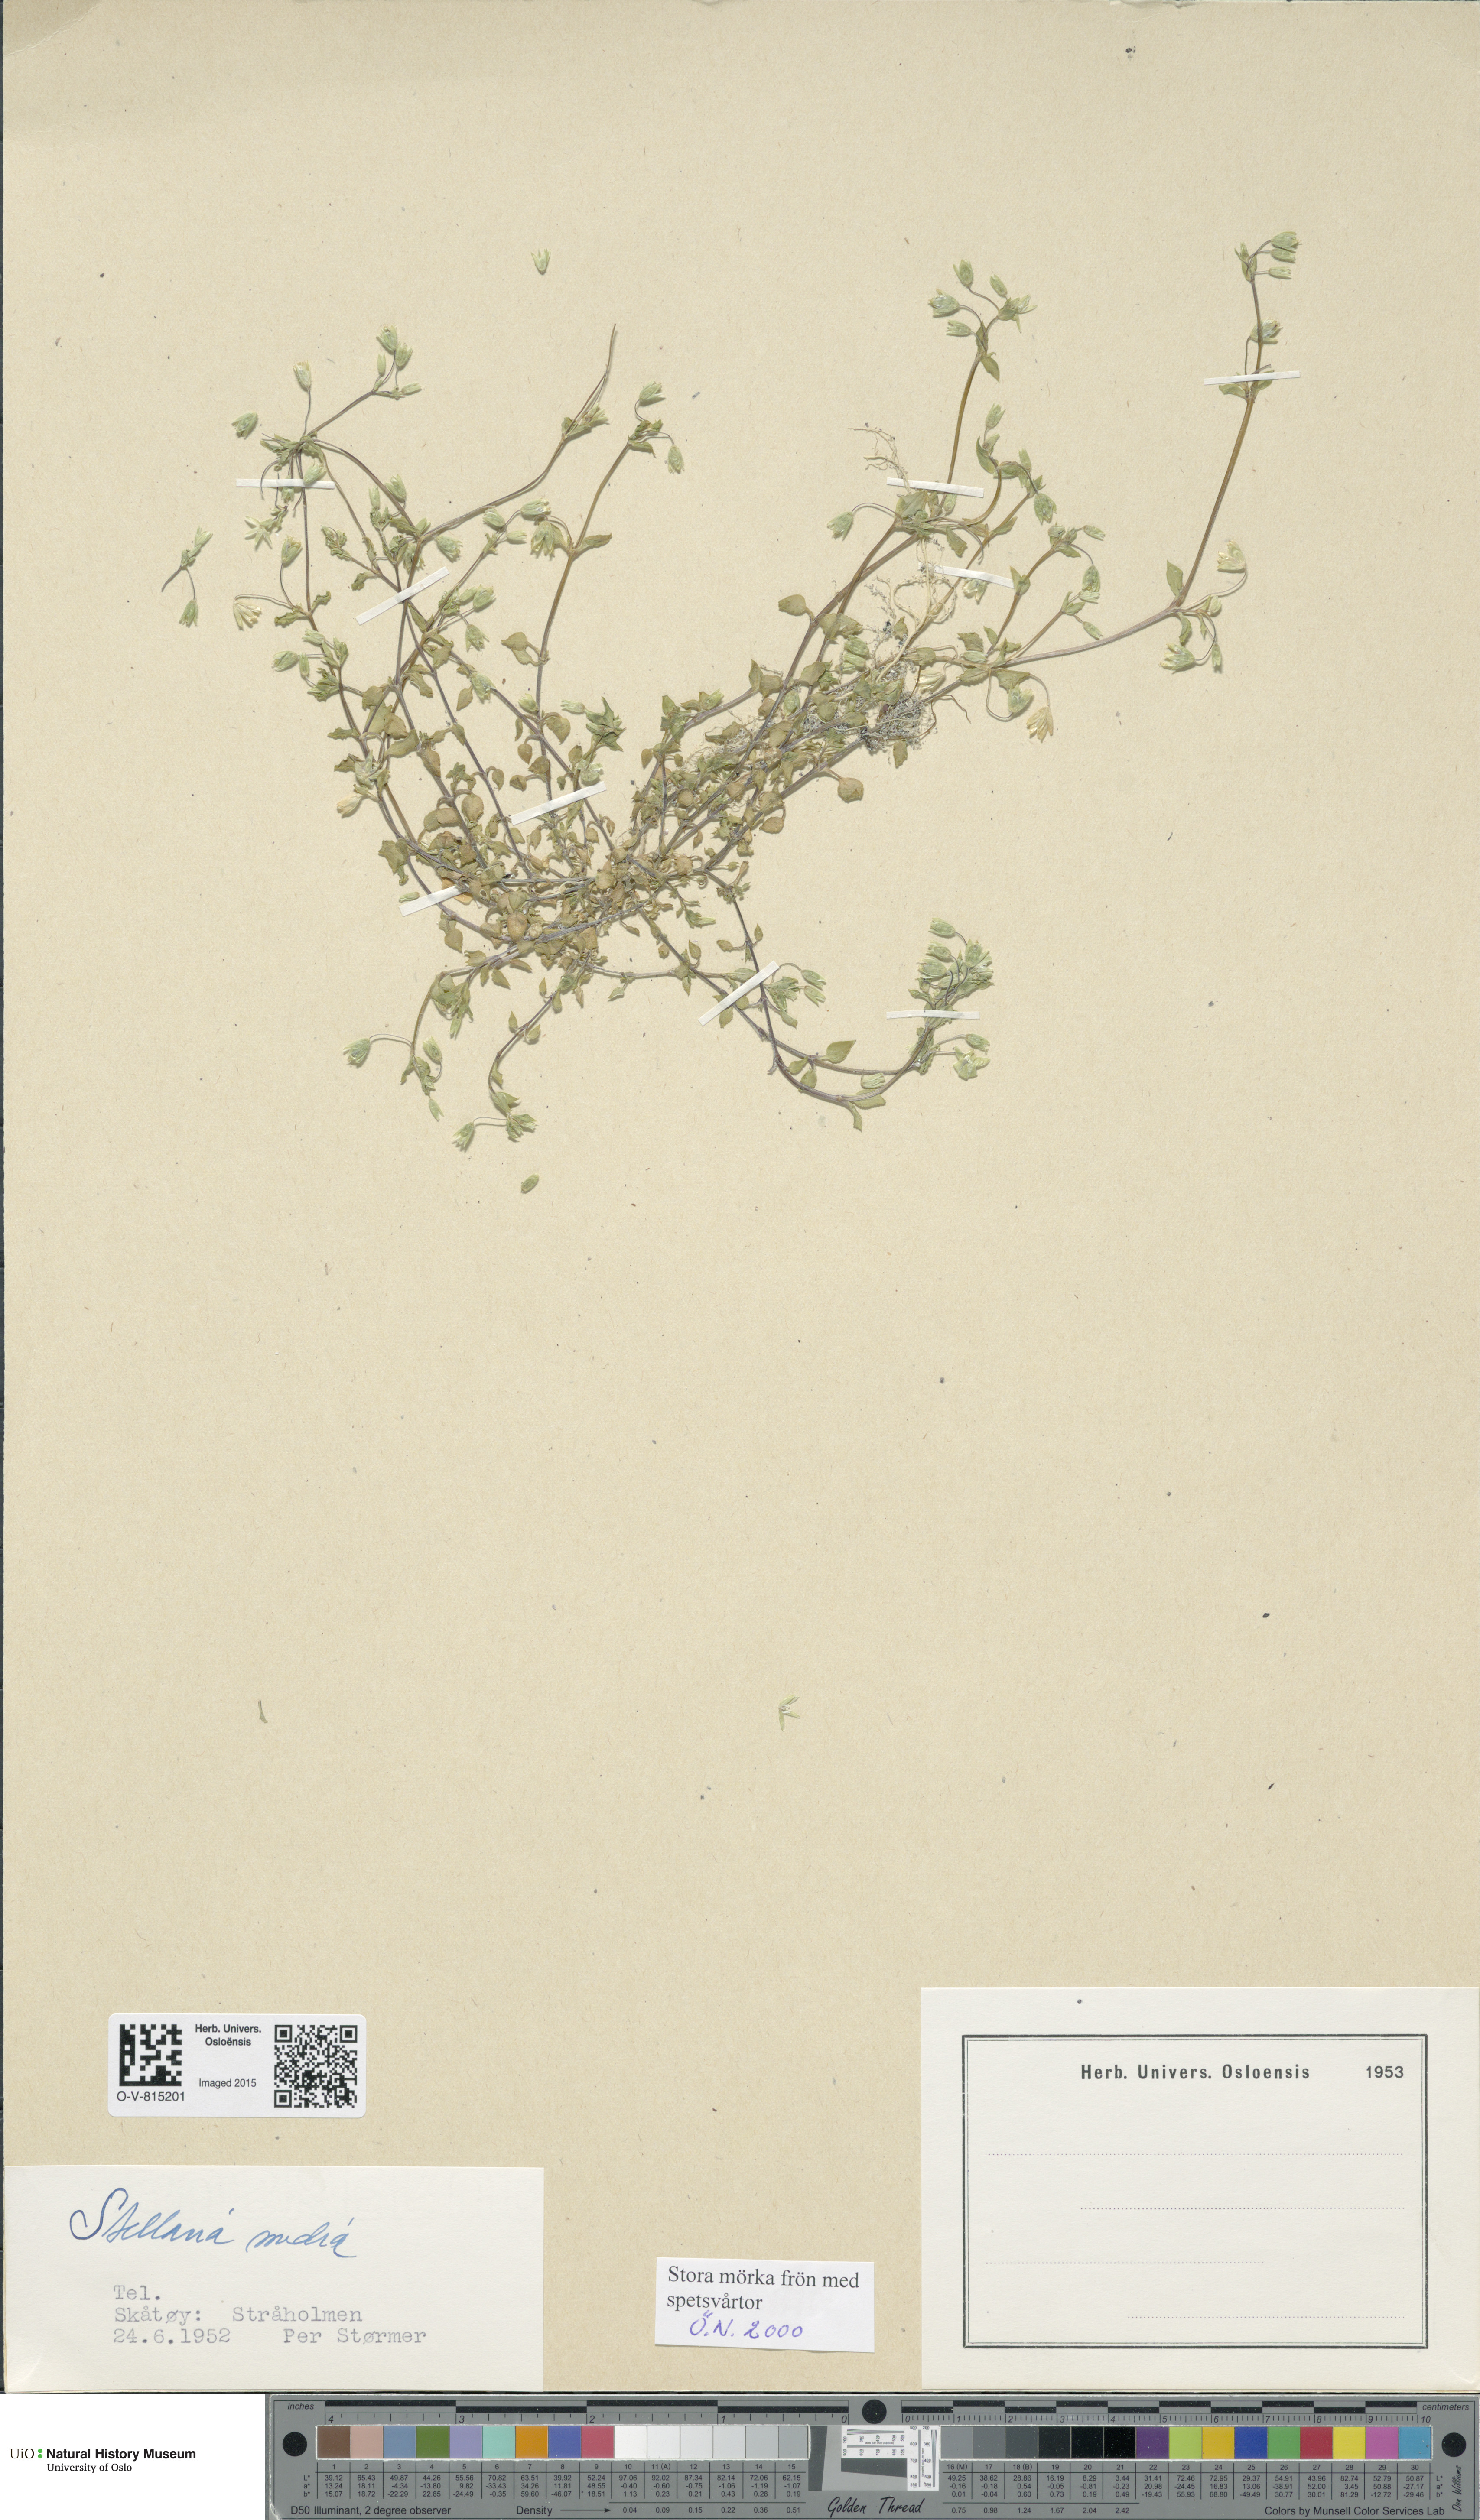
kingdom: Plantae
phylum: Tracheophyta
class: Magnoliopsida
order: Caryophyllales
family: Caryophyllaceae
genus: Stellaria
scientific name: Stellaria media
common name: Common chickweed
